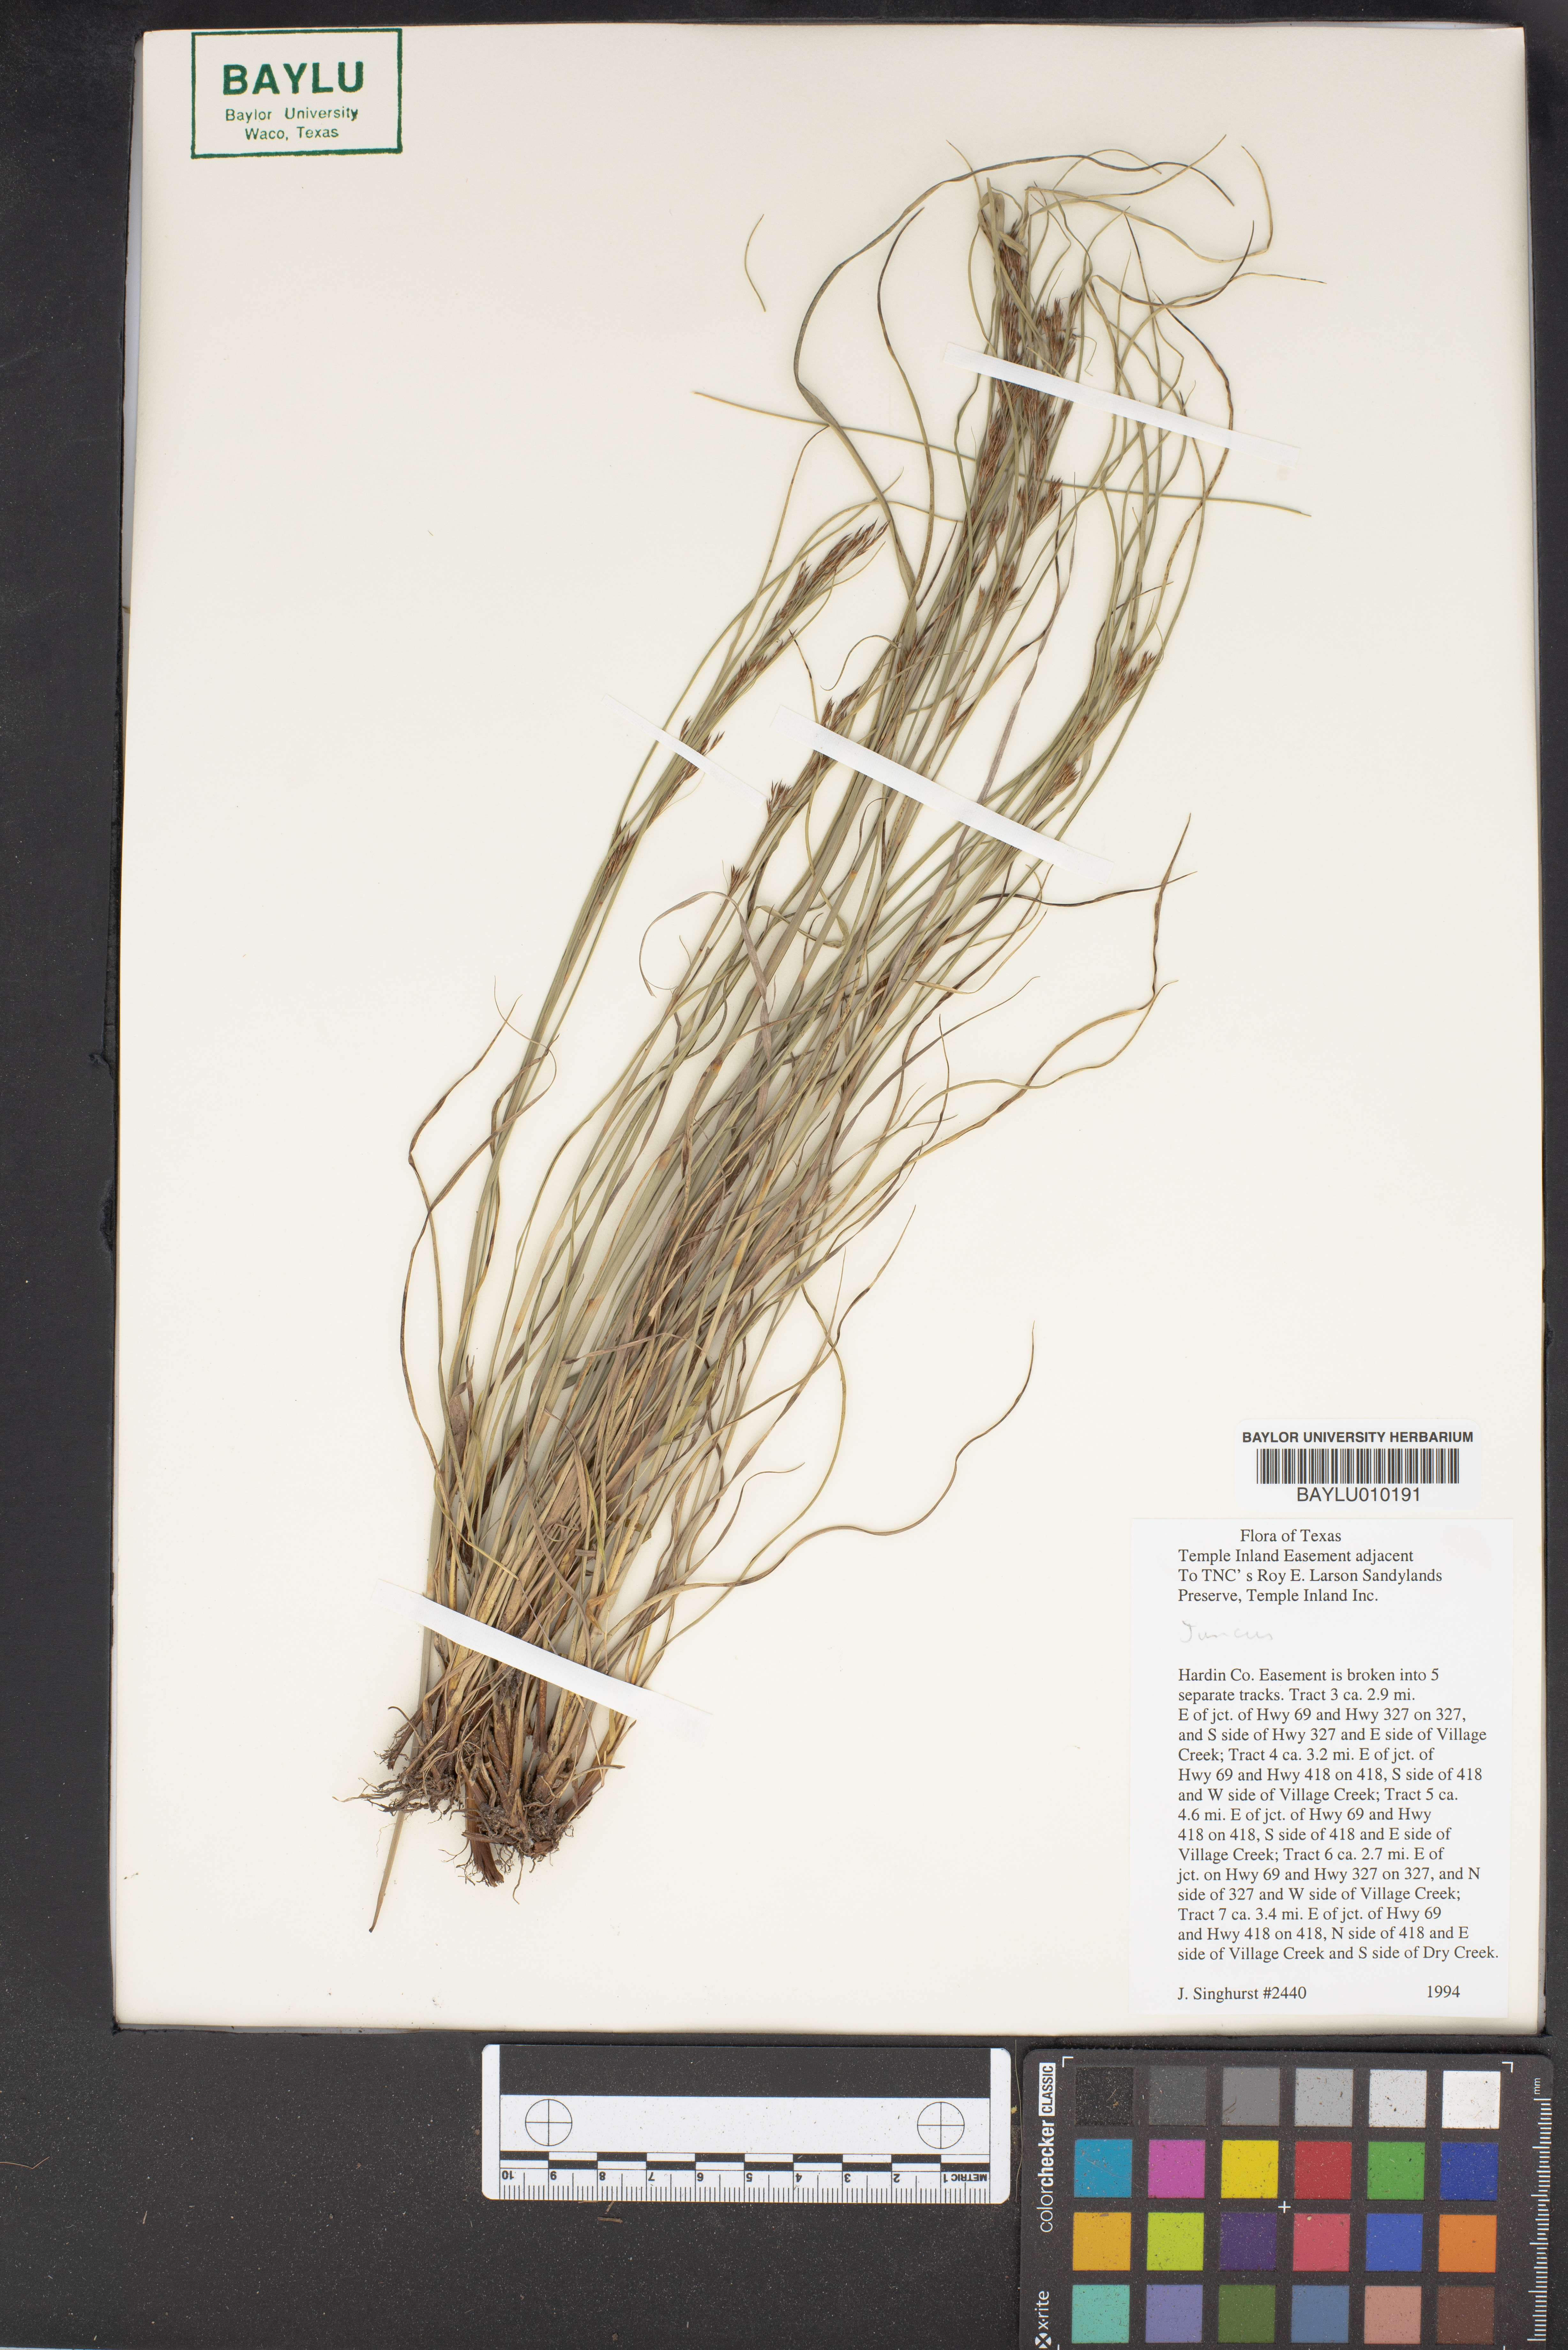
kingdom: Plantae
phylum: Tracheophyta
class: Liliopsida
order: Poales
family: Juncaceae
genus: Juncus
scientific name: Juncus
